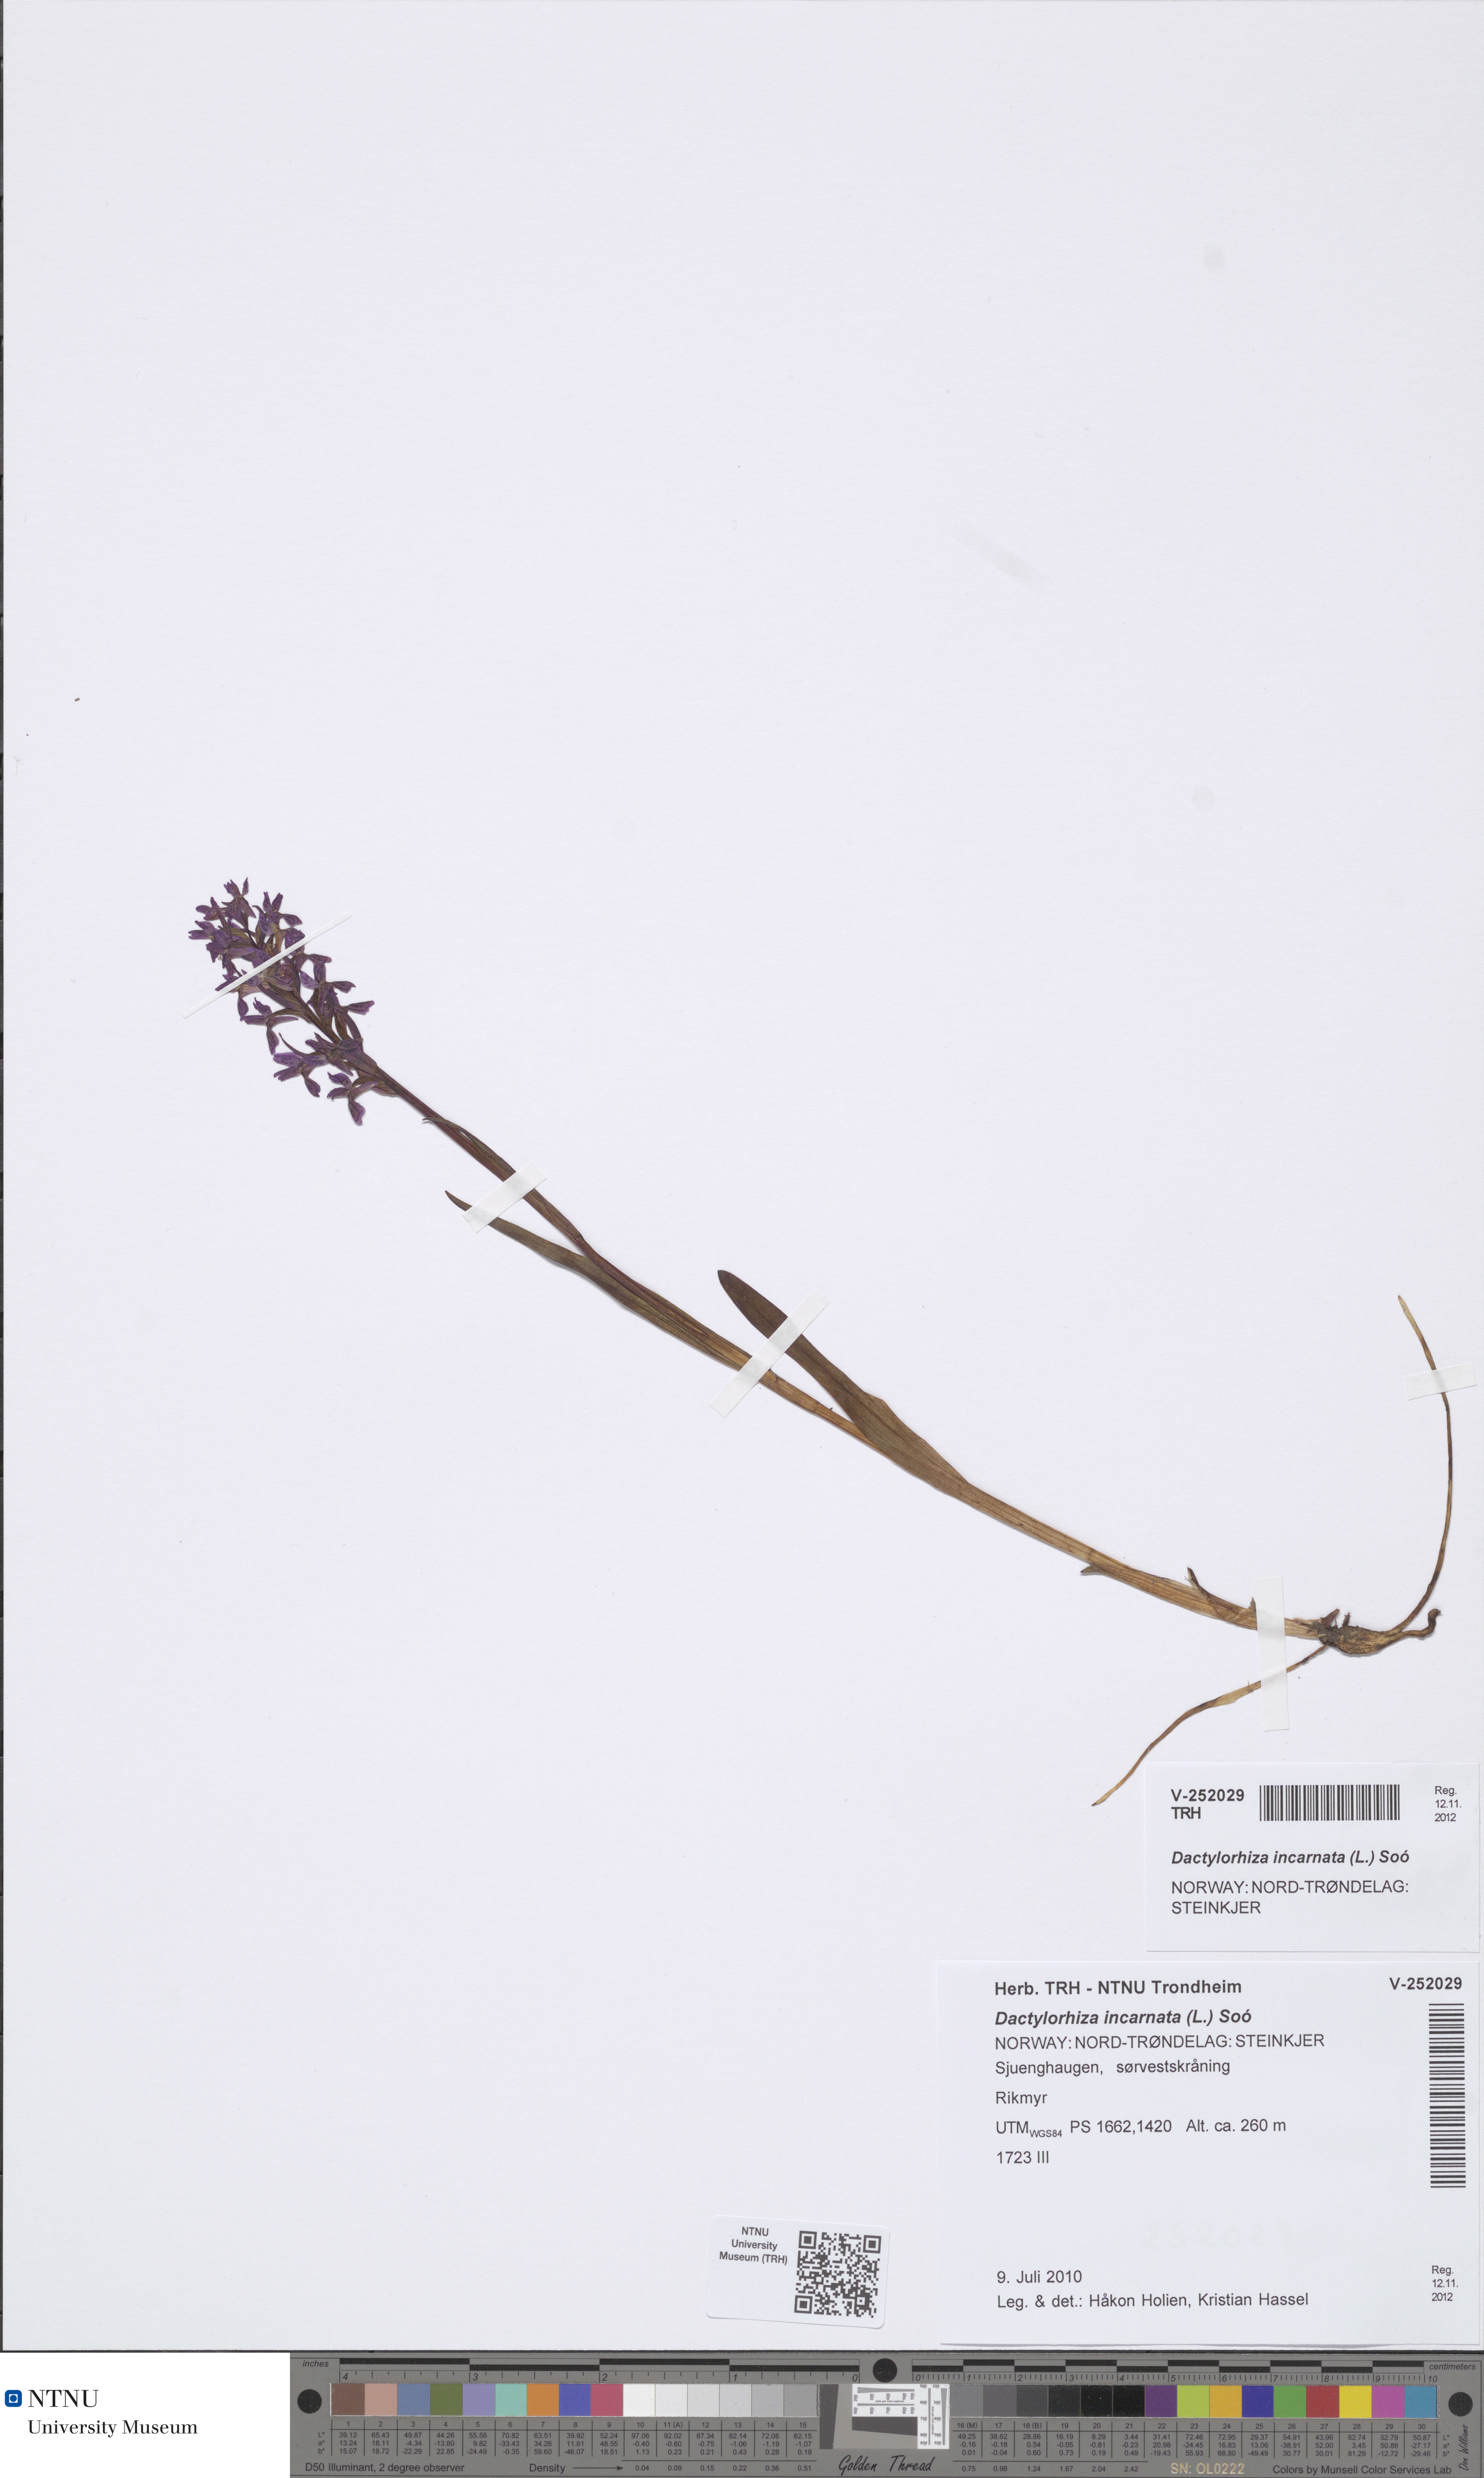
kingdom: Plantae
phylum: Tracheophyta
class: Liliopsida
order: Asparagales
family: Orchidaceae
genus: Dactylorhiza
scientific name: Dactylorhiza incarnata
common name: Early marsh-orchid
